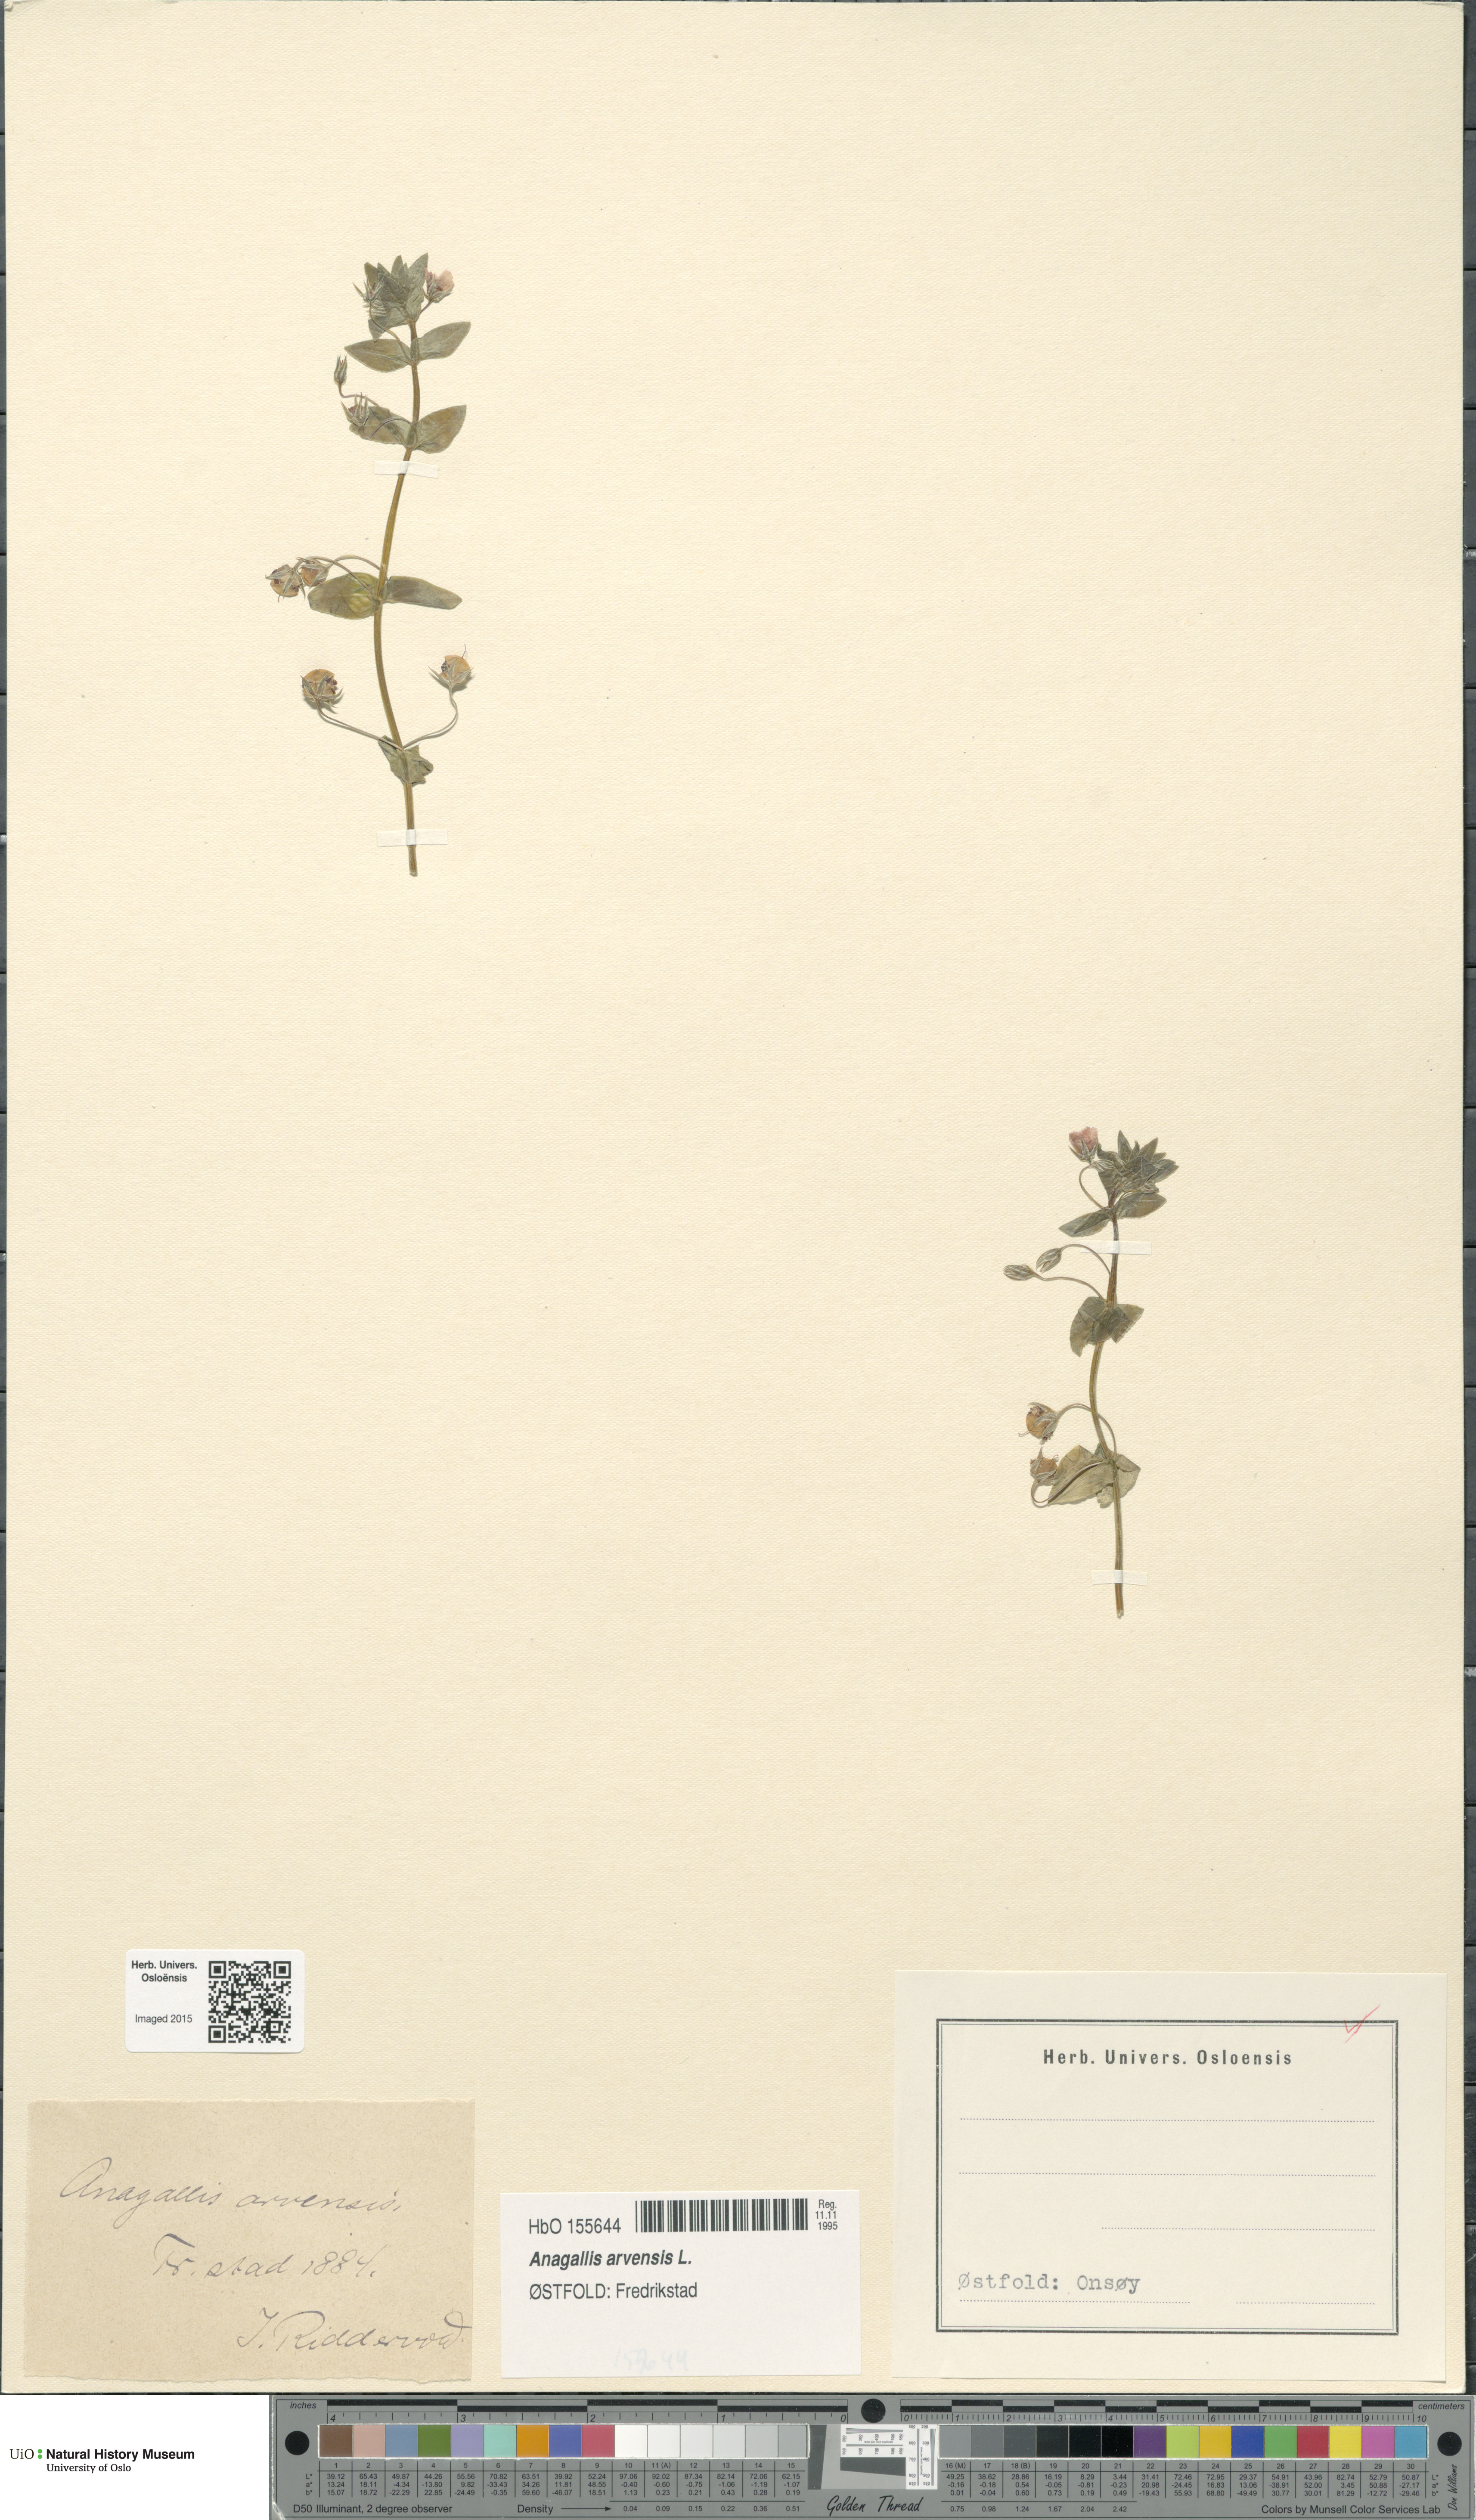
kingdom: Plantae
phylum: Tracheophyta
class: Magnoliopsida
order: Ericales
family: Primulaceae
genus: Lysimachia
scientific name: Lysimachia arvensis
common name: Scarlet pimpernel
